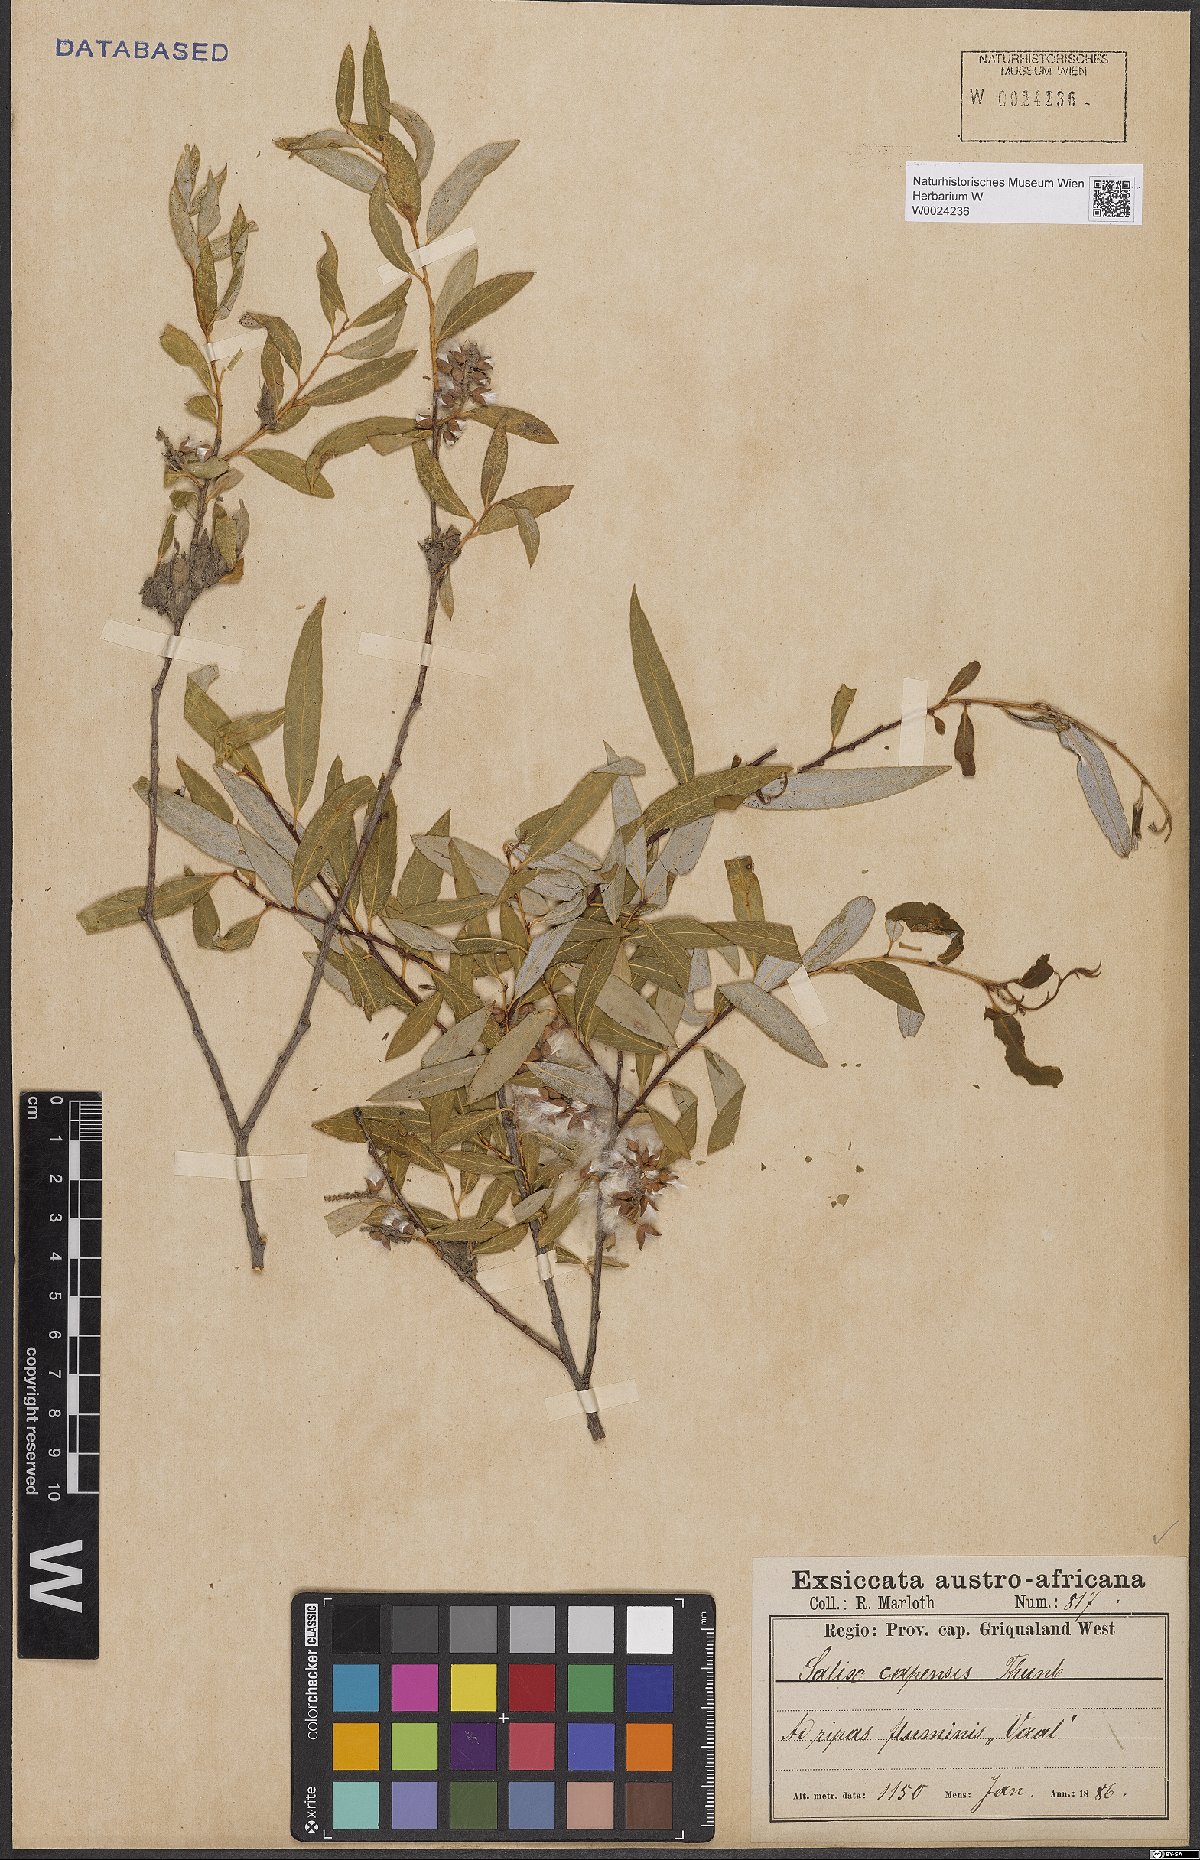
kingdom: Plantae
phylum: Tracheophyta
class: Magnoliopsida
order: Malpighiales
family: Salicaceae
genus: Salix
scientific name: Salix mucronata
